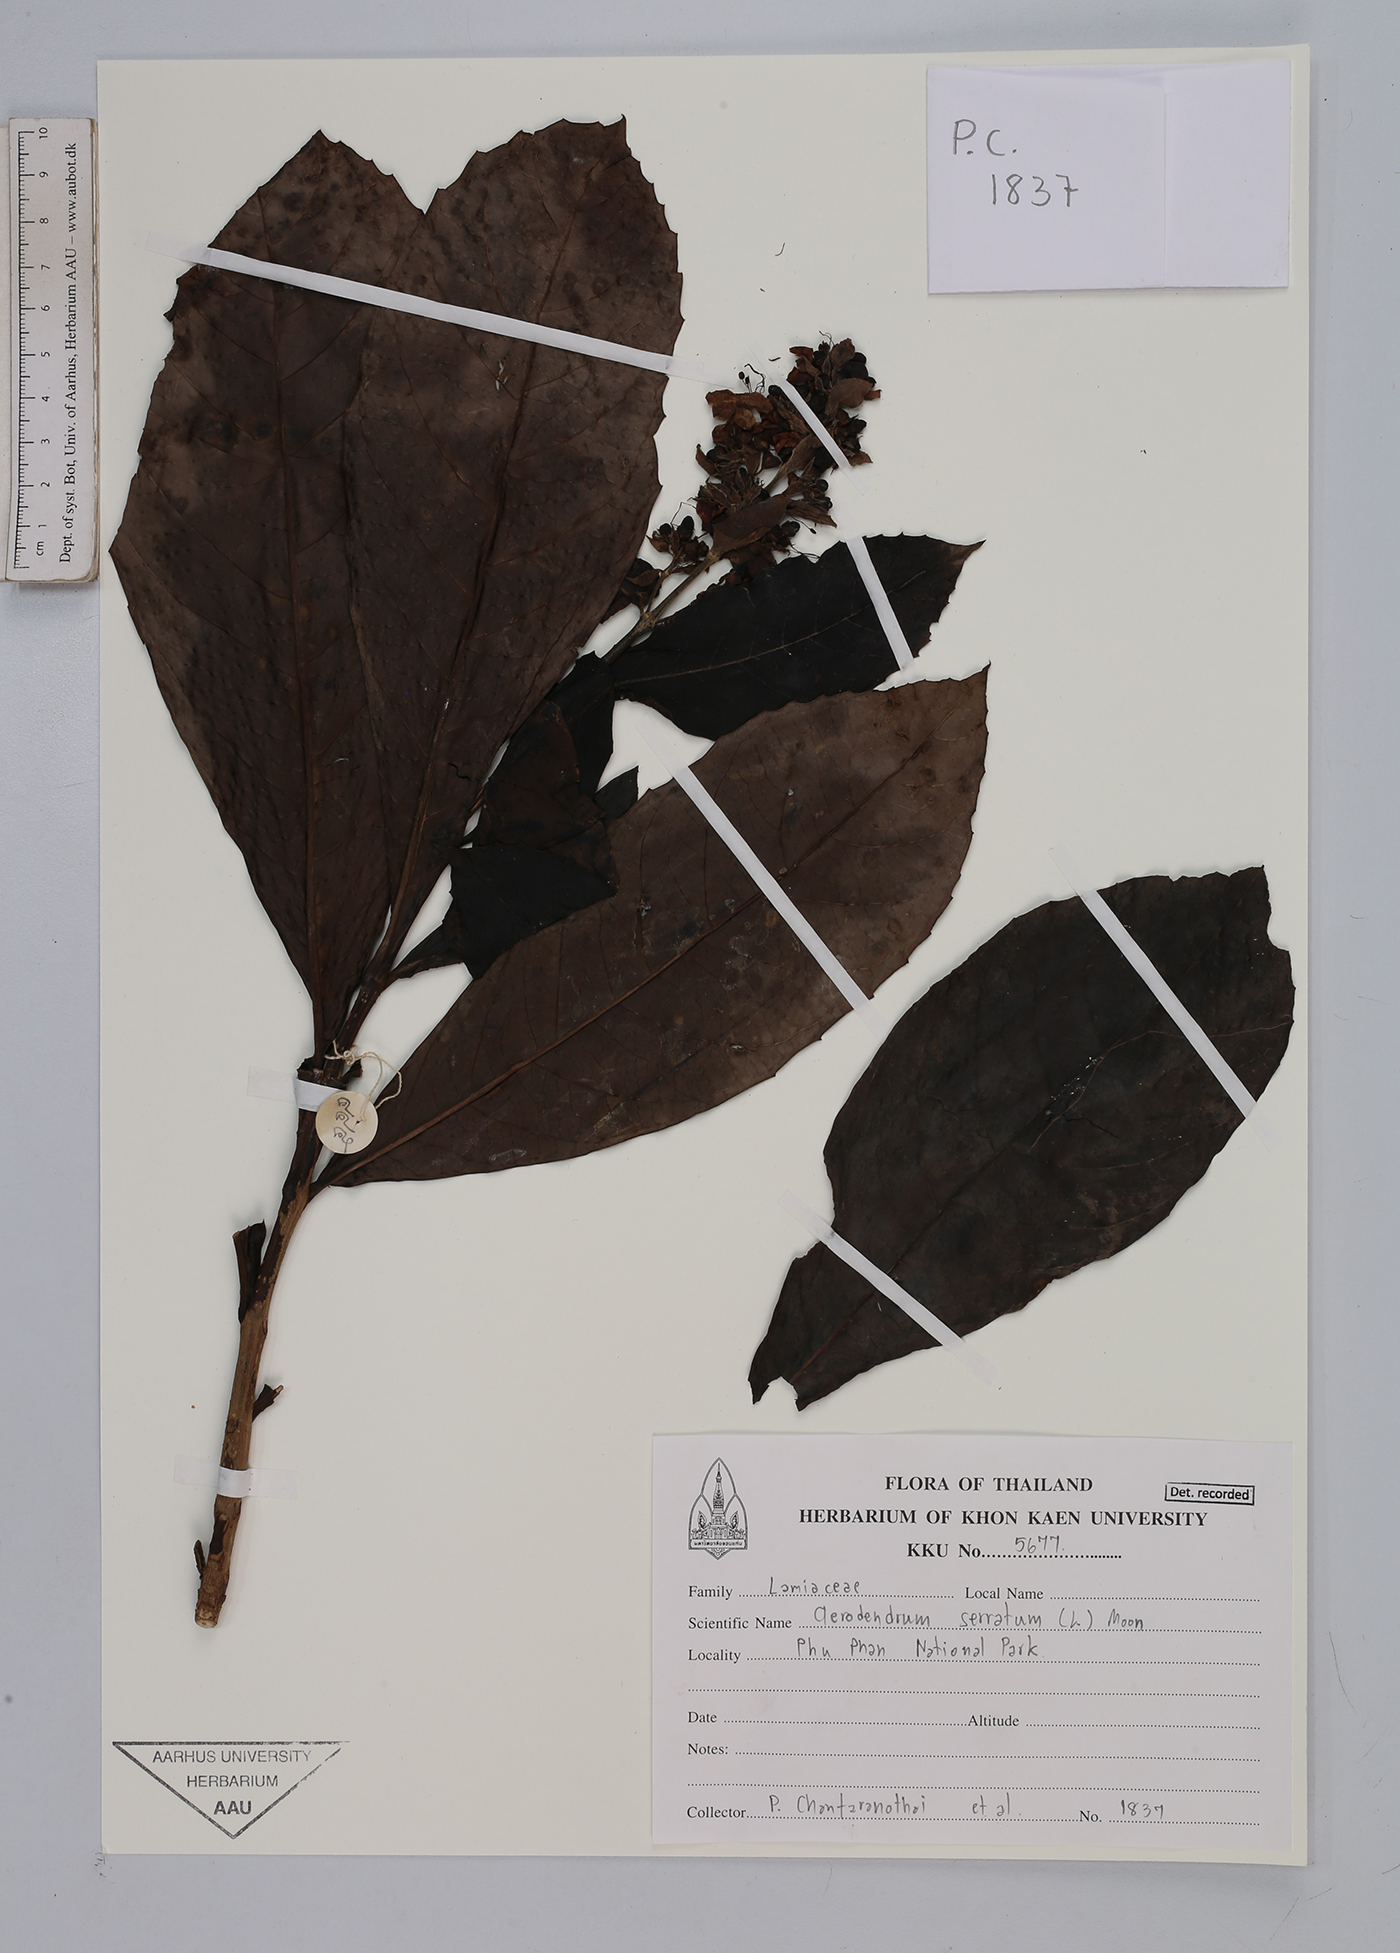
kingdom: Plantae
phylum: Tracheophyta
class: Magnoliopsida
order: Lamiales
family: Lamiaceae
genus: Rotheca
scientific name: Rotheca serrata
